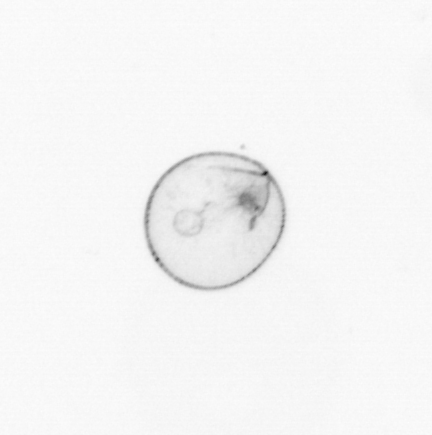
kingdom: Chromista
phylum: Myzozoa
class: Dinophyceae
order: Noctilucales
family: Noctilucaceae
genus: Noctiluca
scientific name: Noctiluca scintillans
